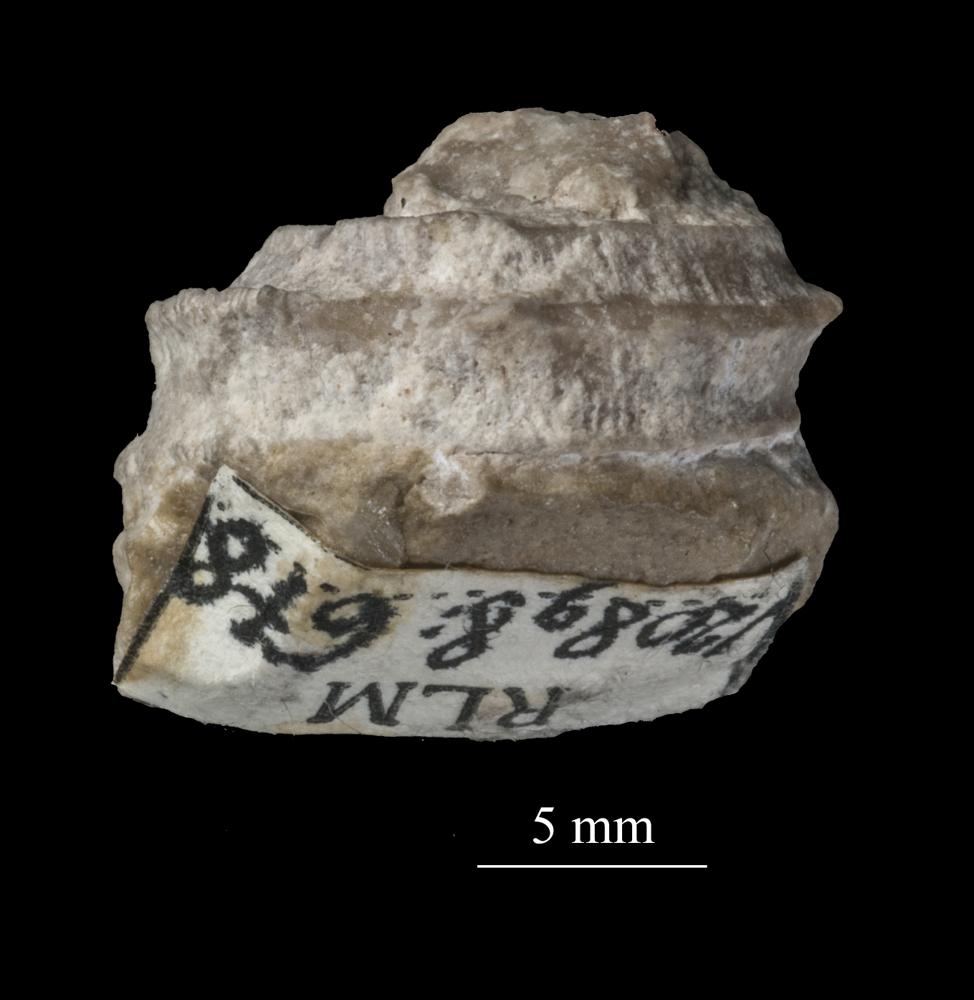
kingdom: Animalia
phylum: Mollusca
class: Gastropoda
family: Trochonematidae
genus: Trochonema
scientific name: Trochonema panderi
